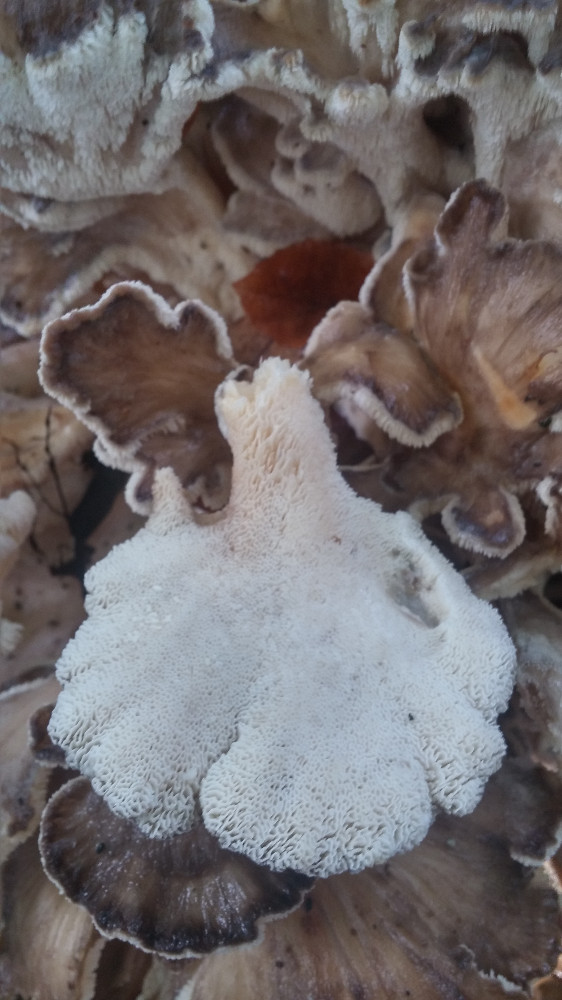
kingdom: Fungi
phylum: Basidiomycota
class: Agaricomycetes
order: Polyporales
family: Grifolaceae
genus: Grifola
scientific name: Grifola frondosa
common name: tueporesvamp
